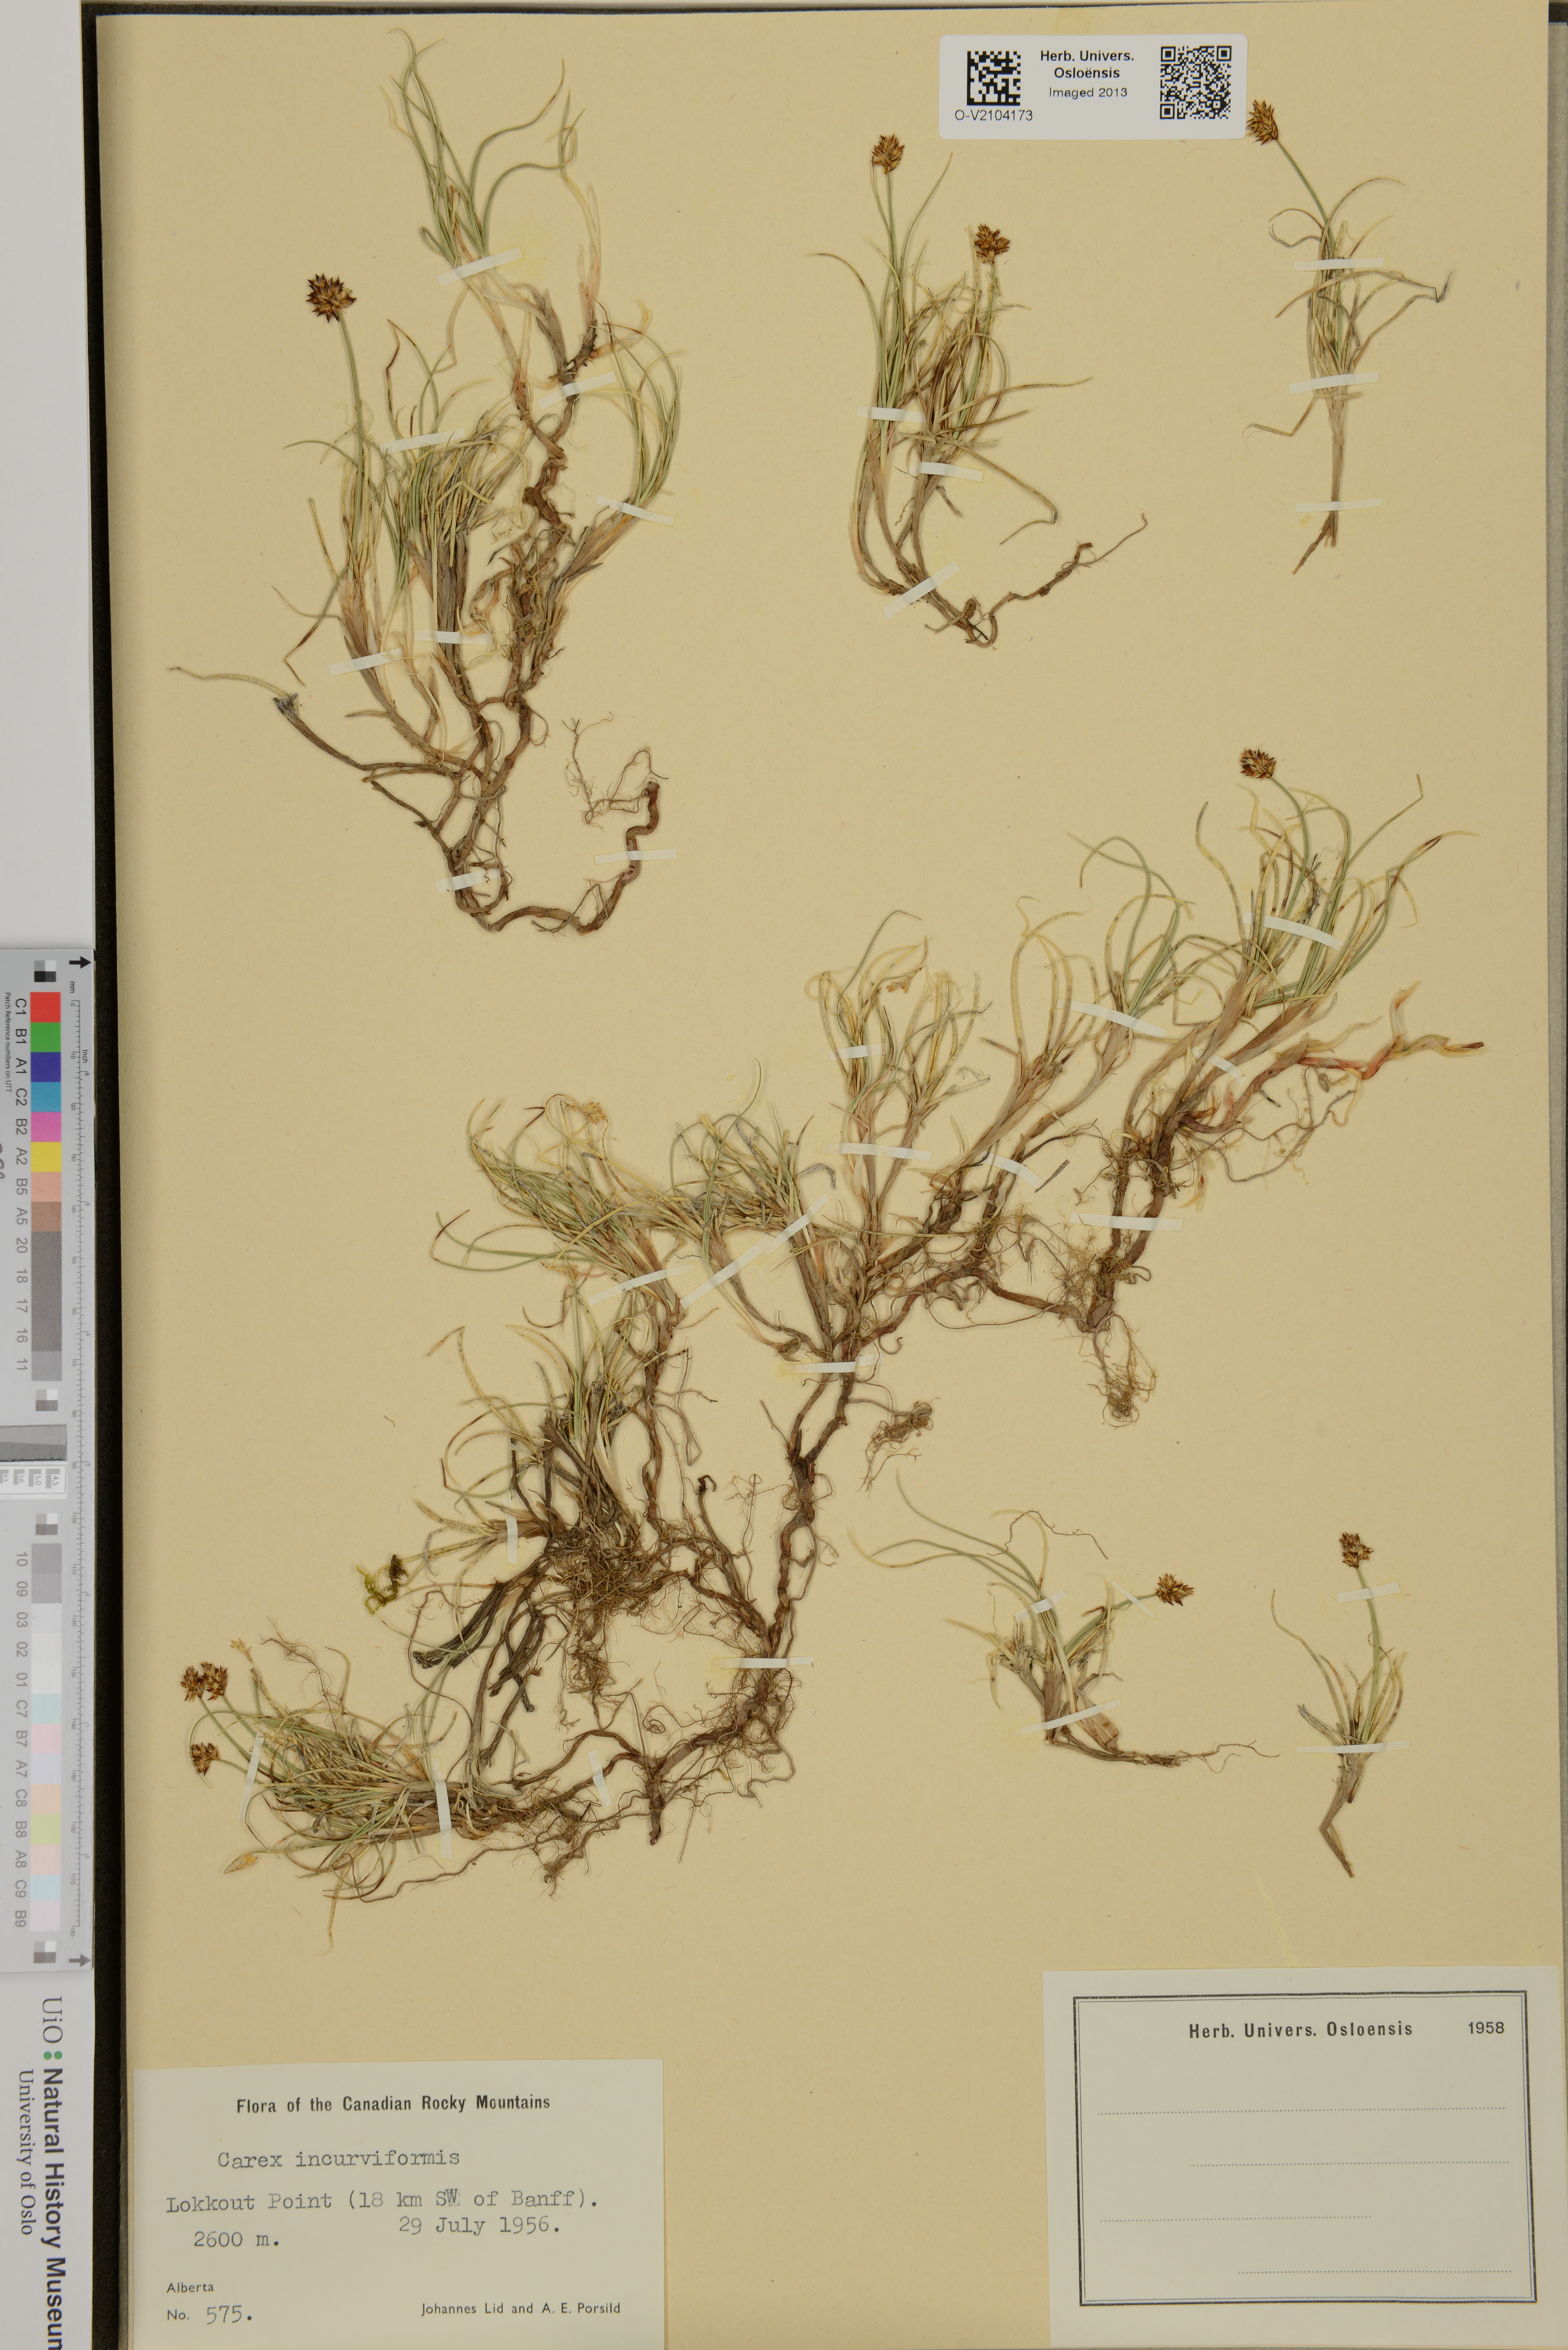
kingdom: Plantae
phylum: Tracheophyta
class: Liliopsida
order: Poales
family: Cyperaceae
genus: Carex
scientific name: Carex incurviformis
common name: Coastal sand sedge
